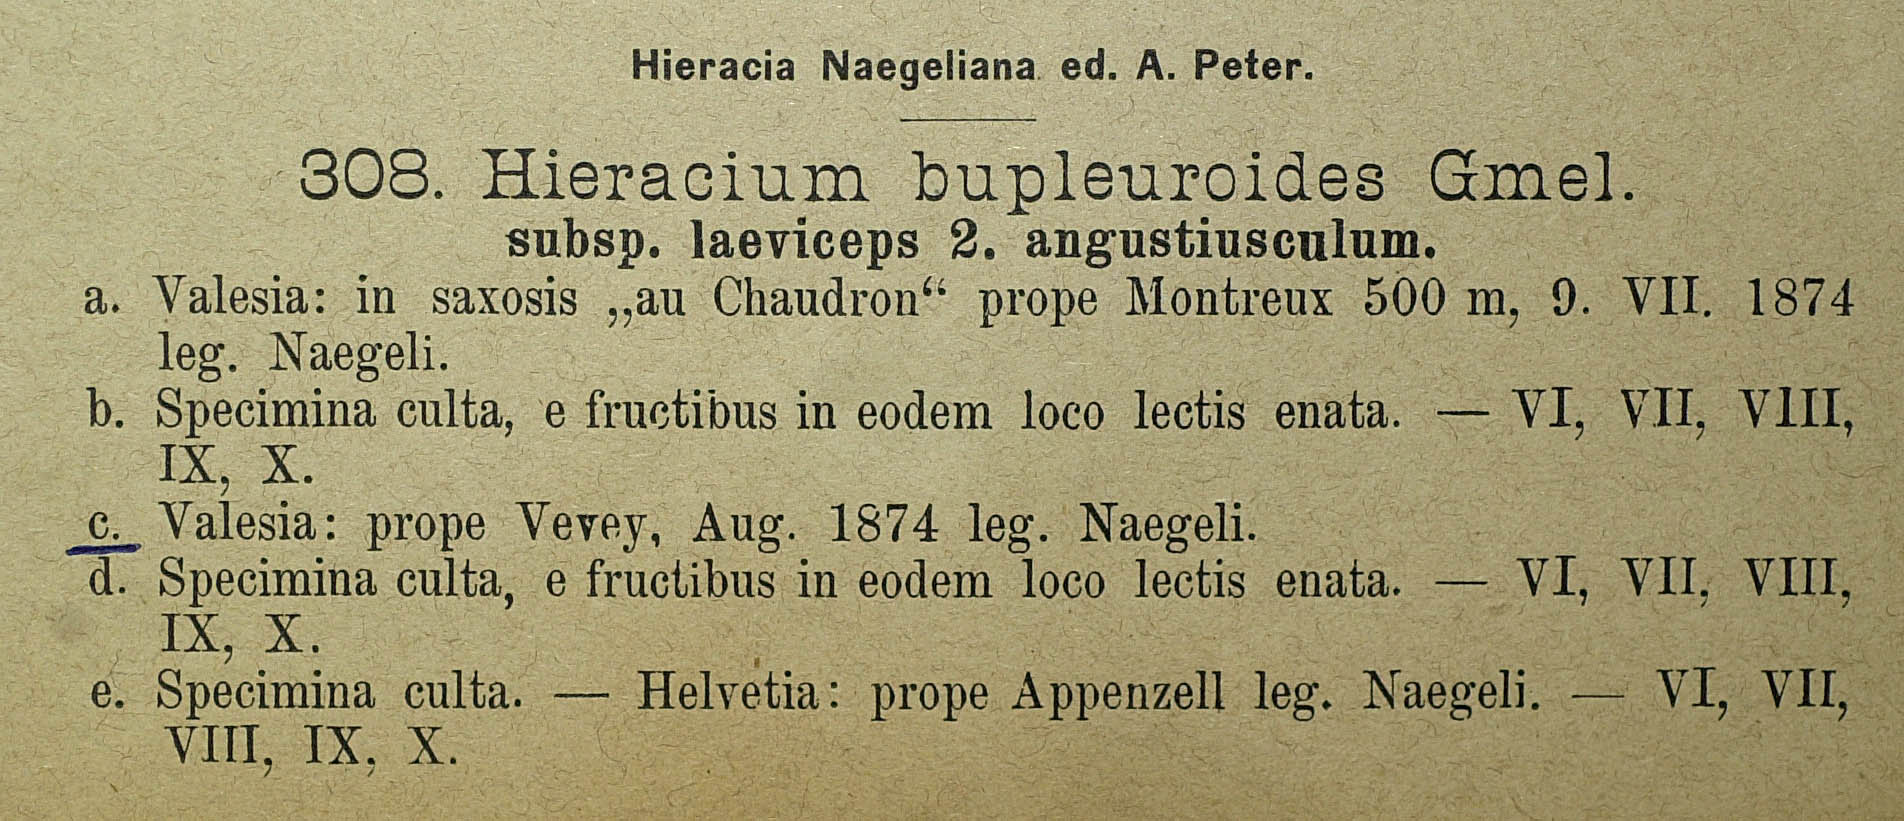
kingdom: Plantae
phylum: Tracheophyta
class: Magnoliopsida
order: Asterales
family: Asteraceae
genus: Hieracium
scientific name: Hieracium bupleuroides
